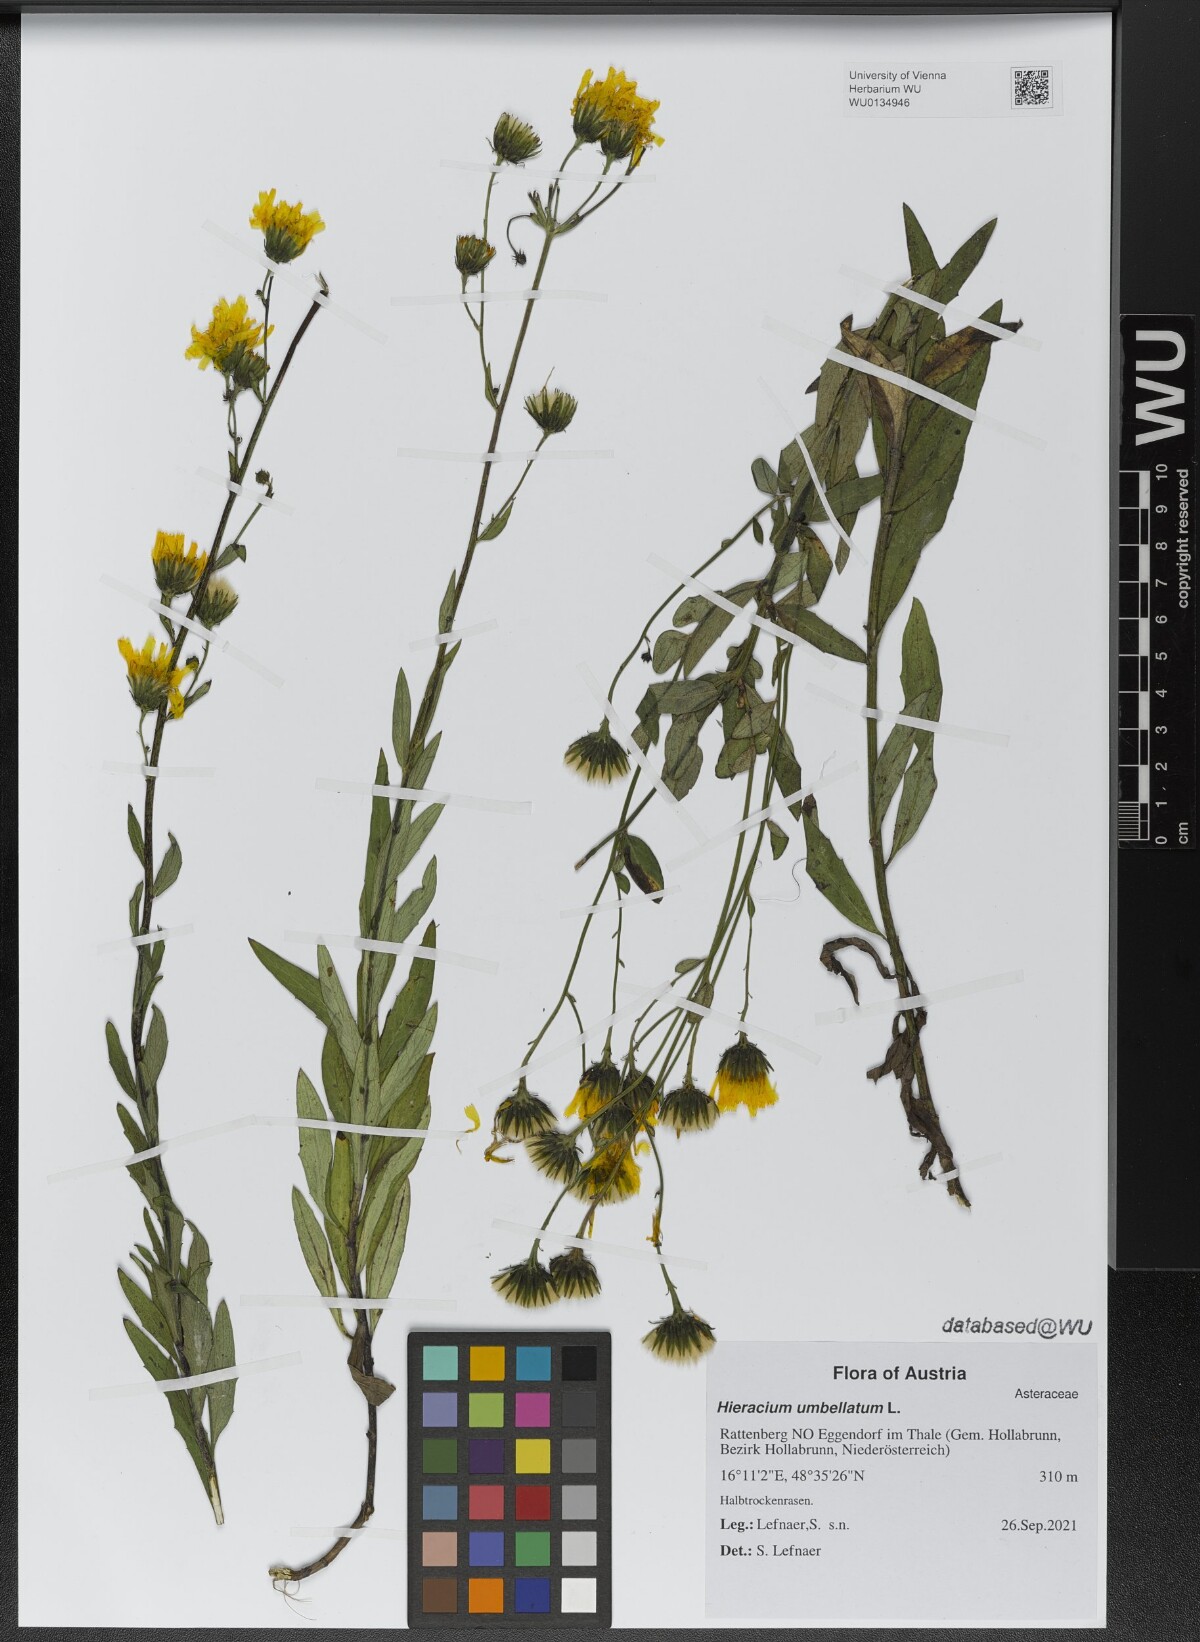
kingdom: Plantae
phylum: Tracheophyta
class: Magnoliopsida
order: Asterales
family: Asteraceae
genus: Hieracium
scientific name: Hieracium umbellatum
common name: Northern hawkweed
